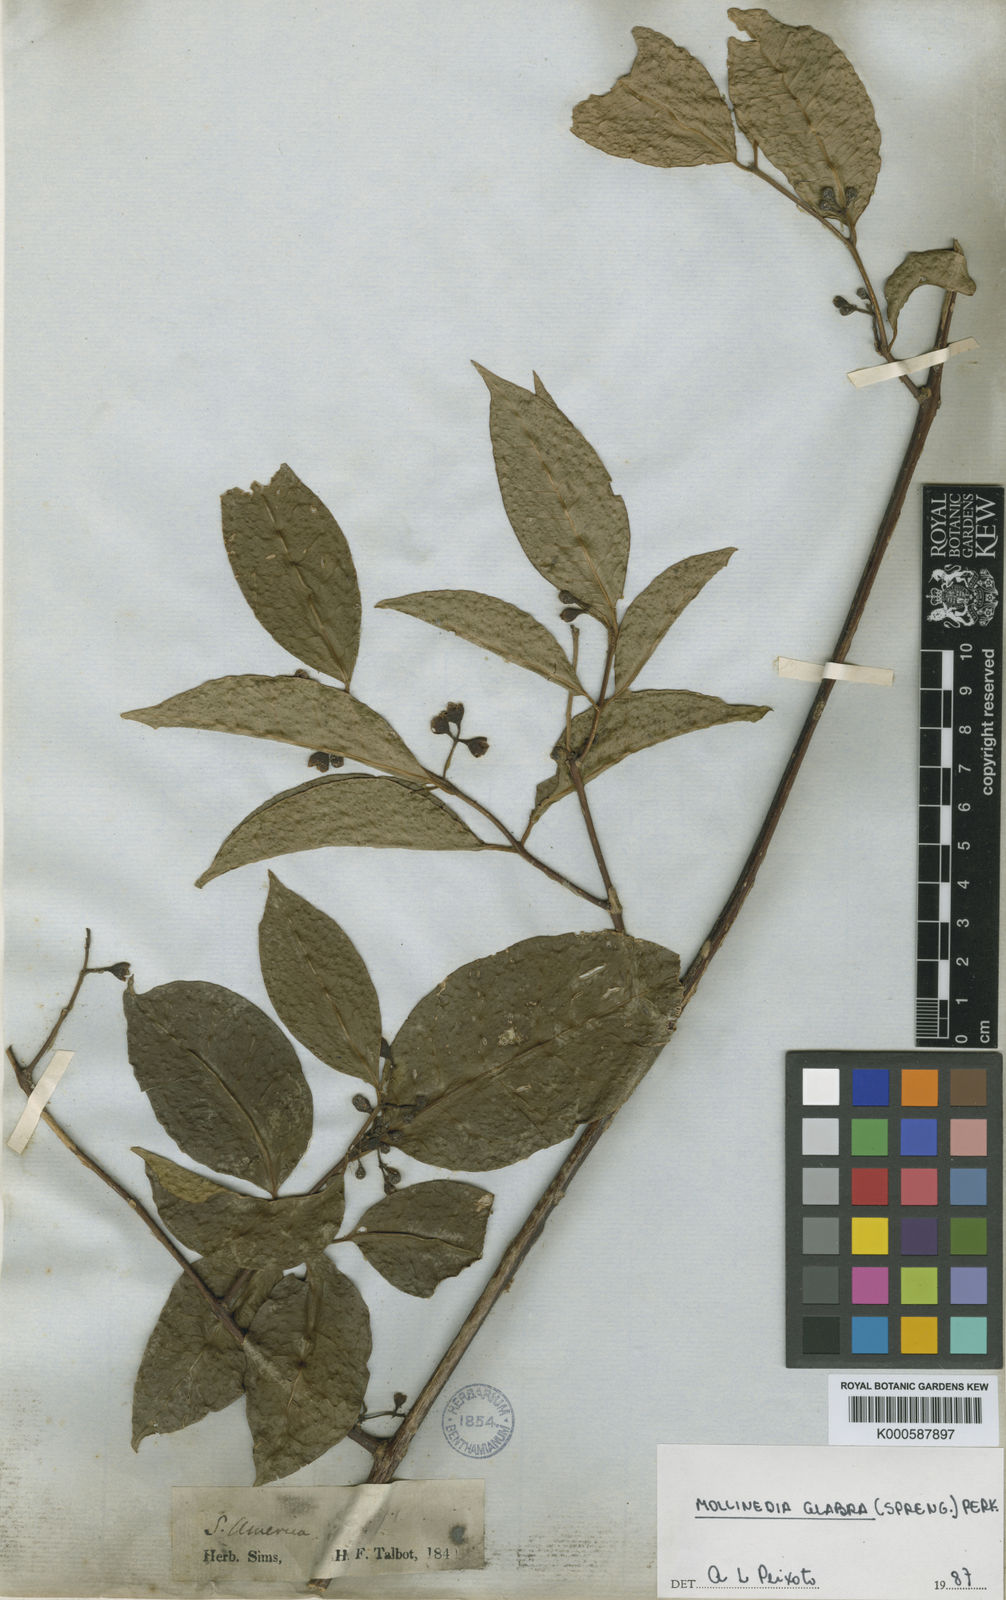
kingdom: Plantae
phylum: Tracheophyta
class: Magnoliopsida
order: Laurales
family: Monimiaceae
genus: Mollinedia
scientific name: Mollinedia glabra
